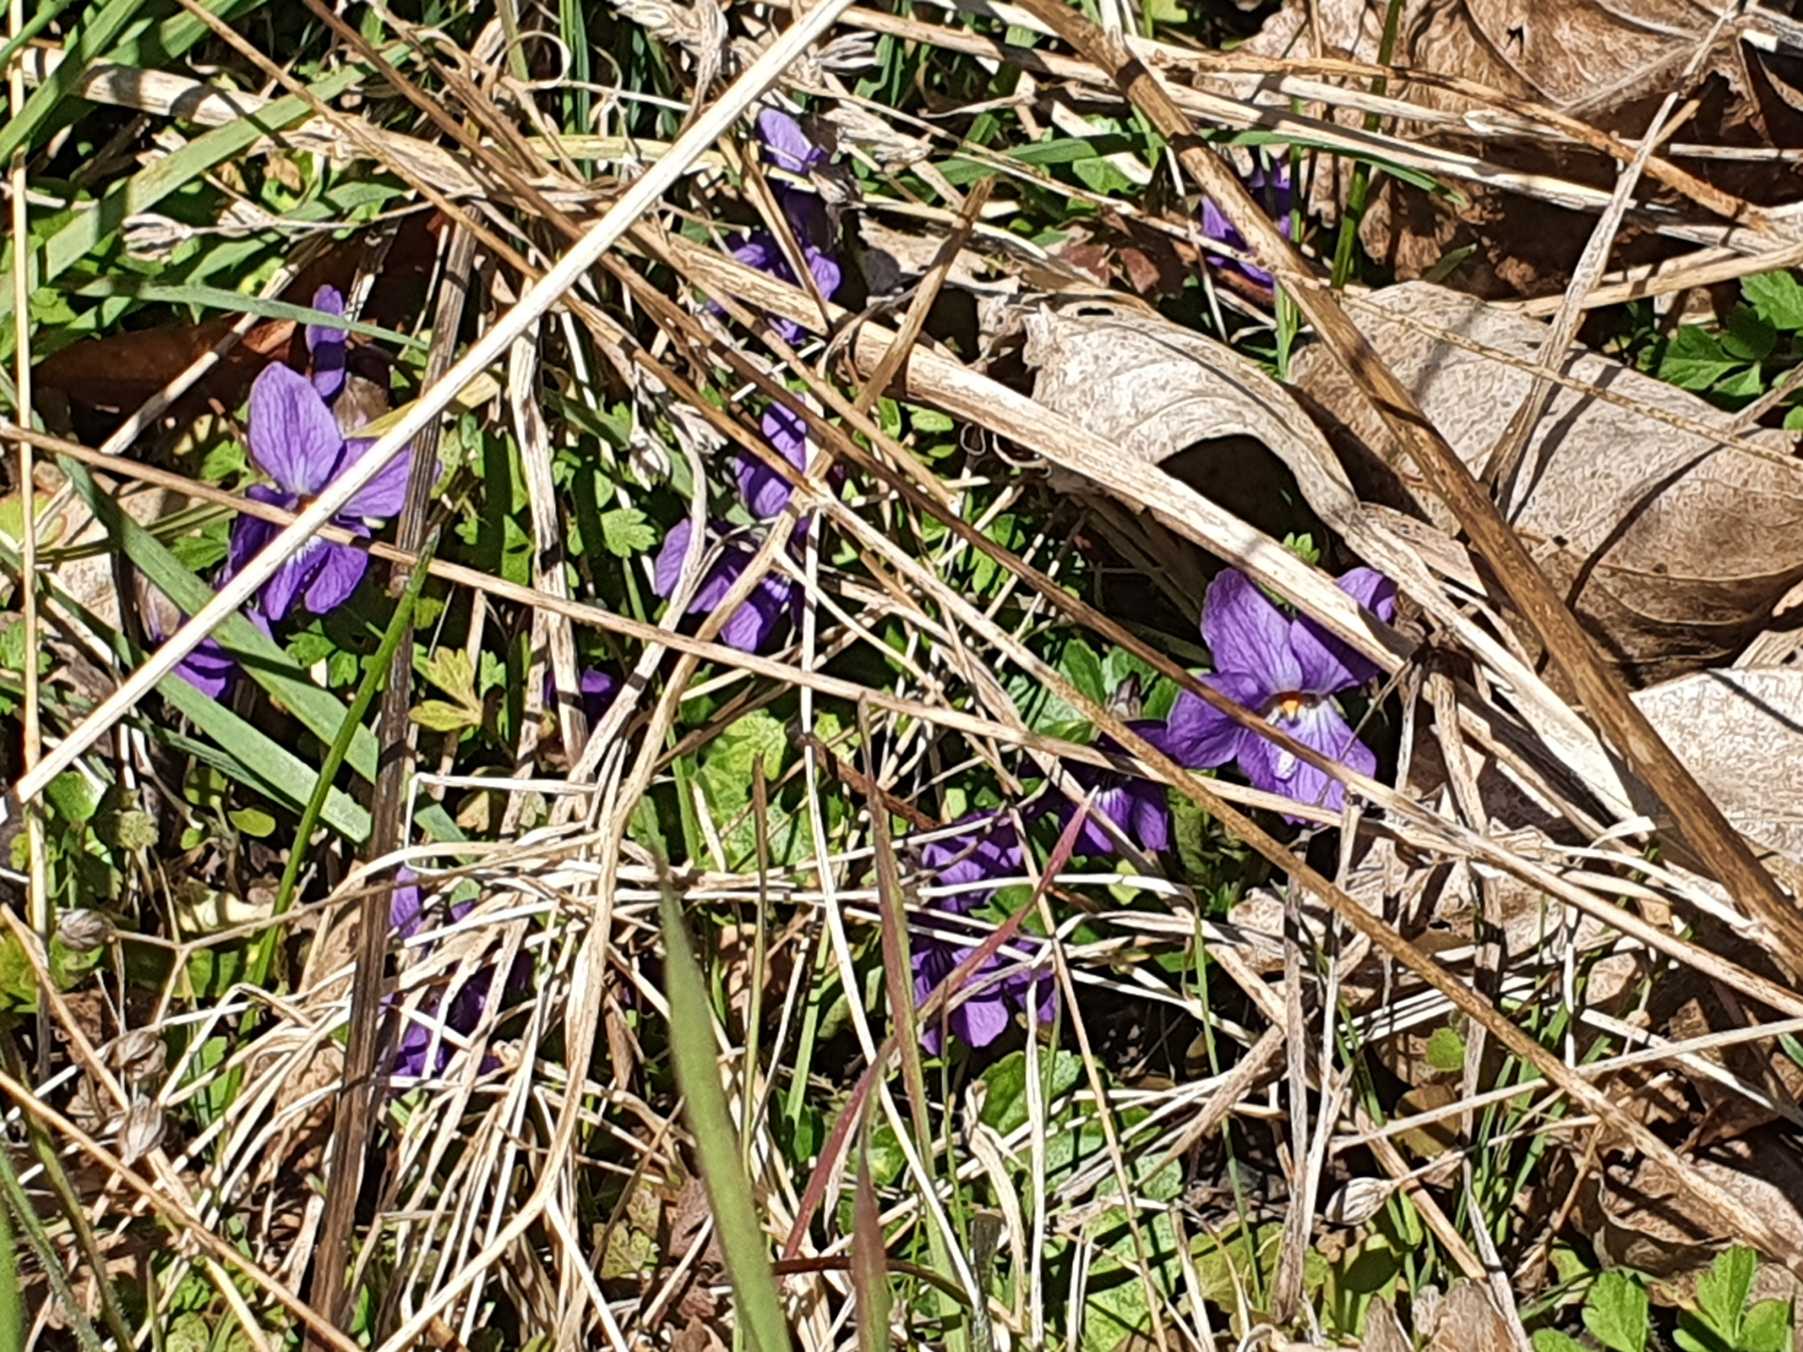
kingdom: Plantae
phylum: Tracheophyta
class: Magnoliopsida
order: Malpighiales
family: Violaceae
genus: Viola
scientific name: Viola odorata
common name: Marts-viol
